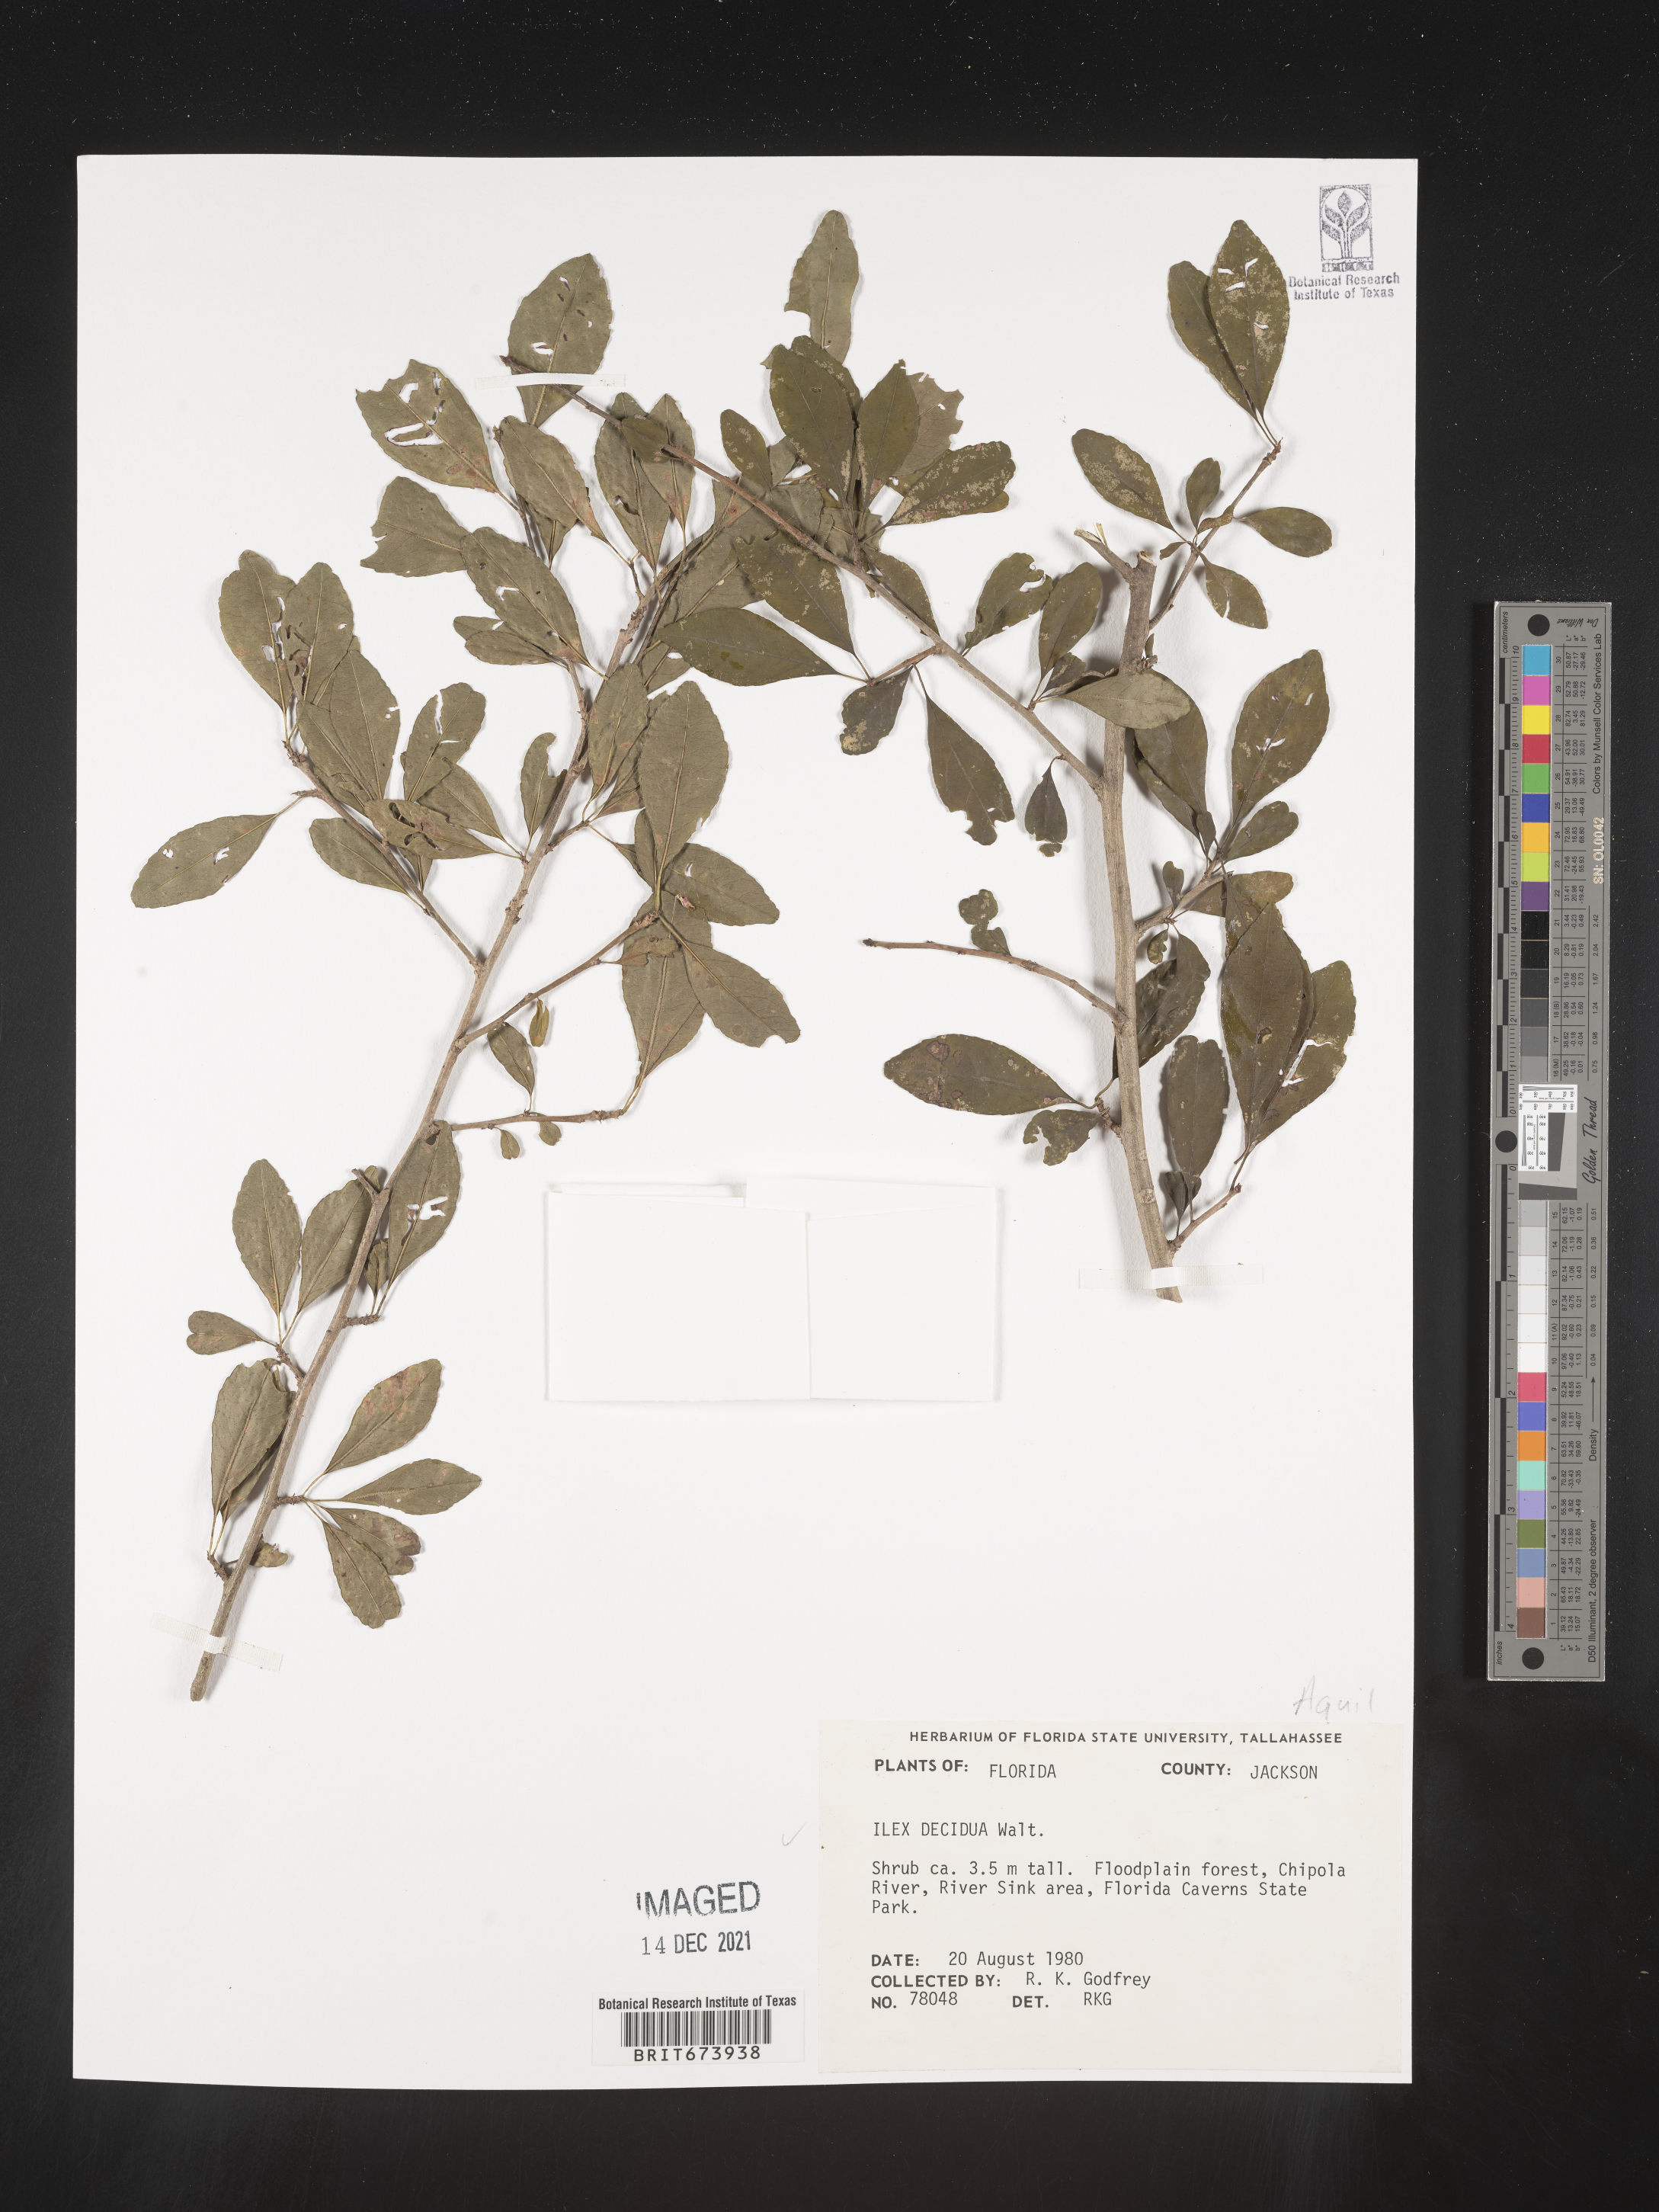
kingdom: Plantae
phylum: Tracheophyta
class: Magnoliopsida
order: Aquifoliales
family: Aquifoliaceae
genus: Ilex
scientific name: Ilex decidua
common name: Possum-haw
